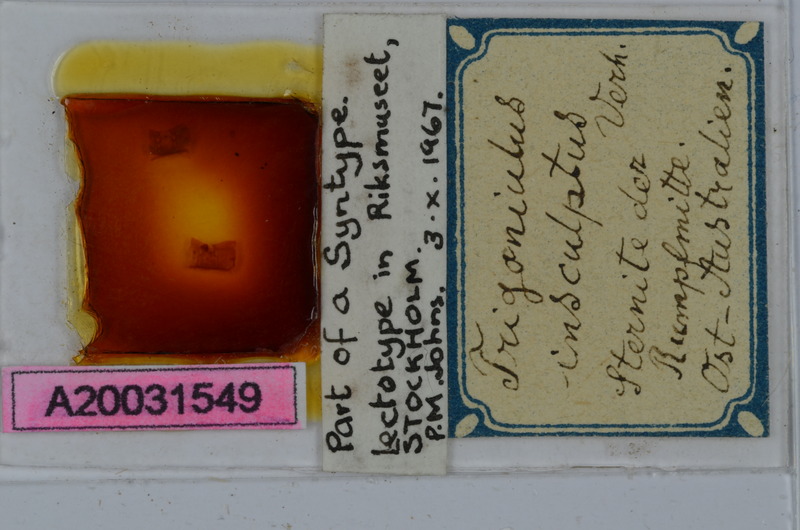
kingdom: Animalia
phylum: Arthropoda
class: Diplopoda
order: Spirobolida
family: Pachybolidae
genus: Trigoniulus
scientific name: Trigoniulus insculptus
